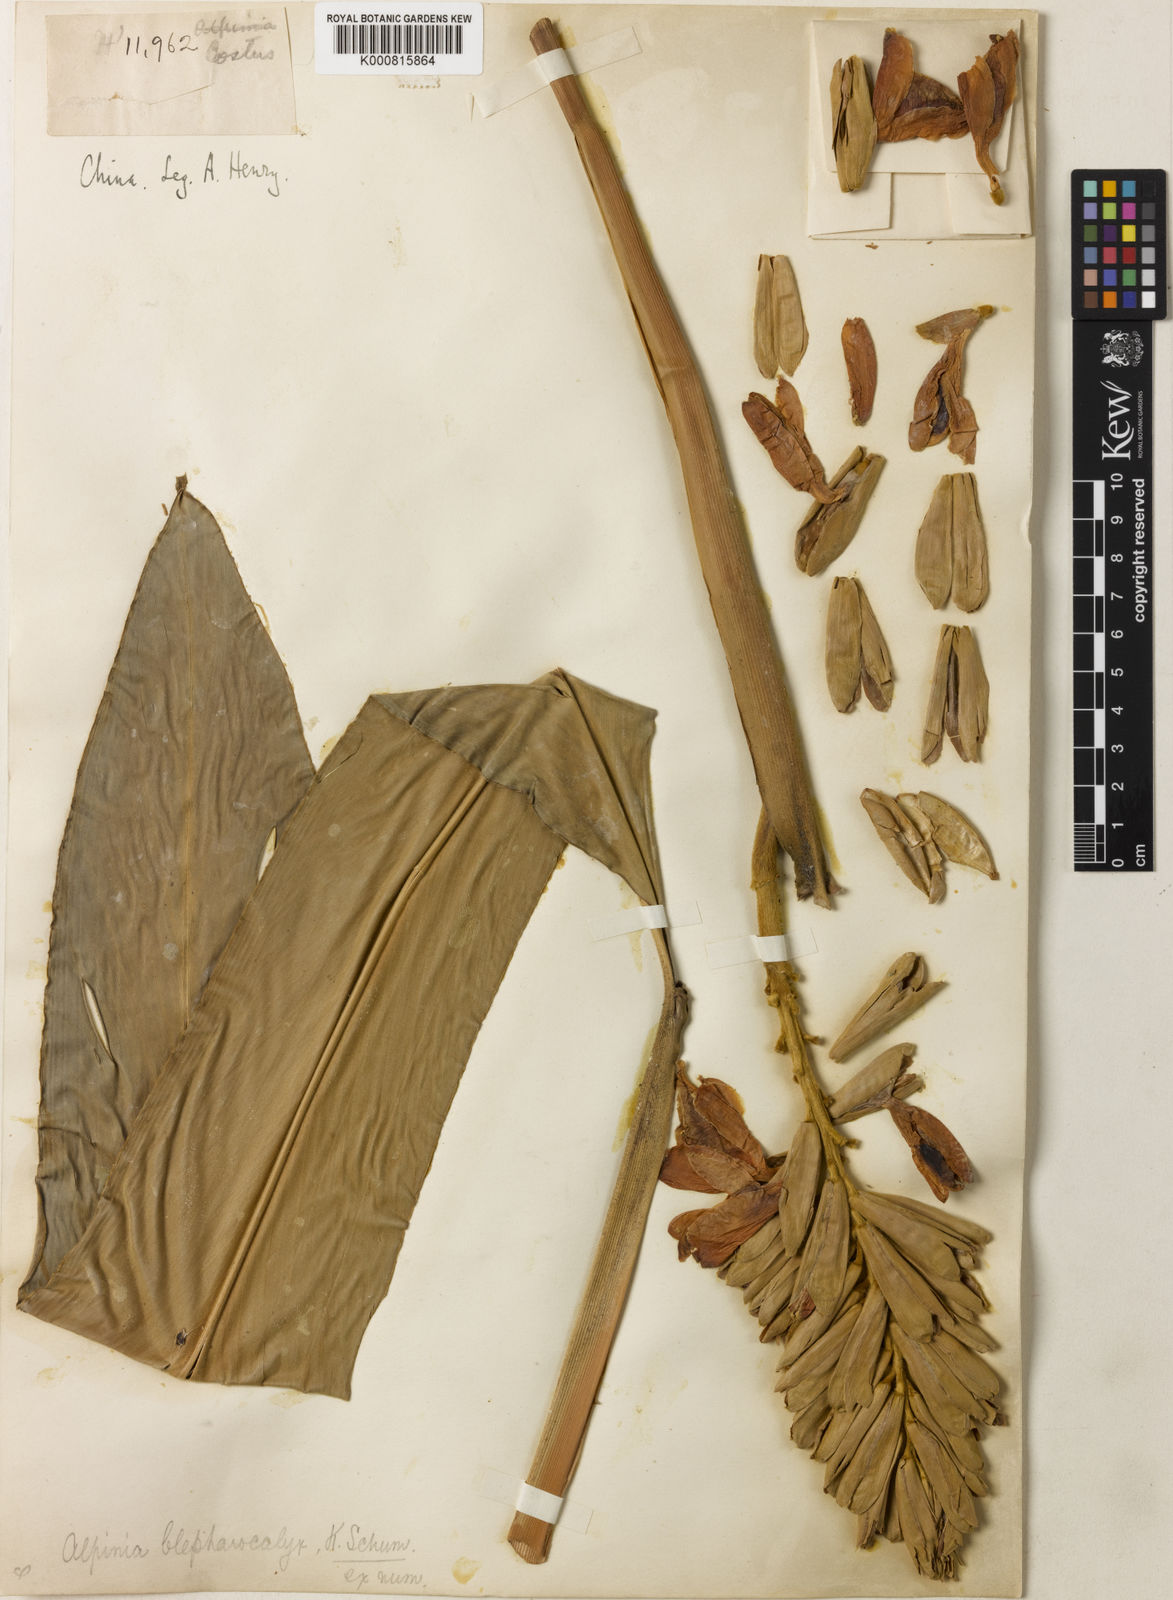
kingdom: Plantae
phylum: Tracheophyta
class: Liliopsida
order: Zingiberales
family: Zingiberaceae
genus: Alpinia
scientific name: Alpinia roxburghii
